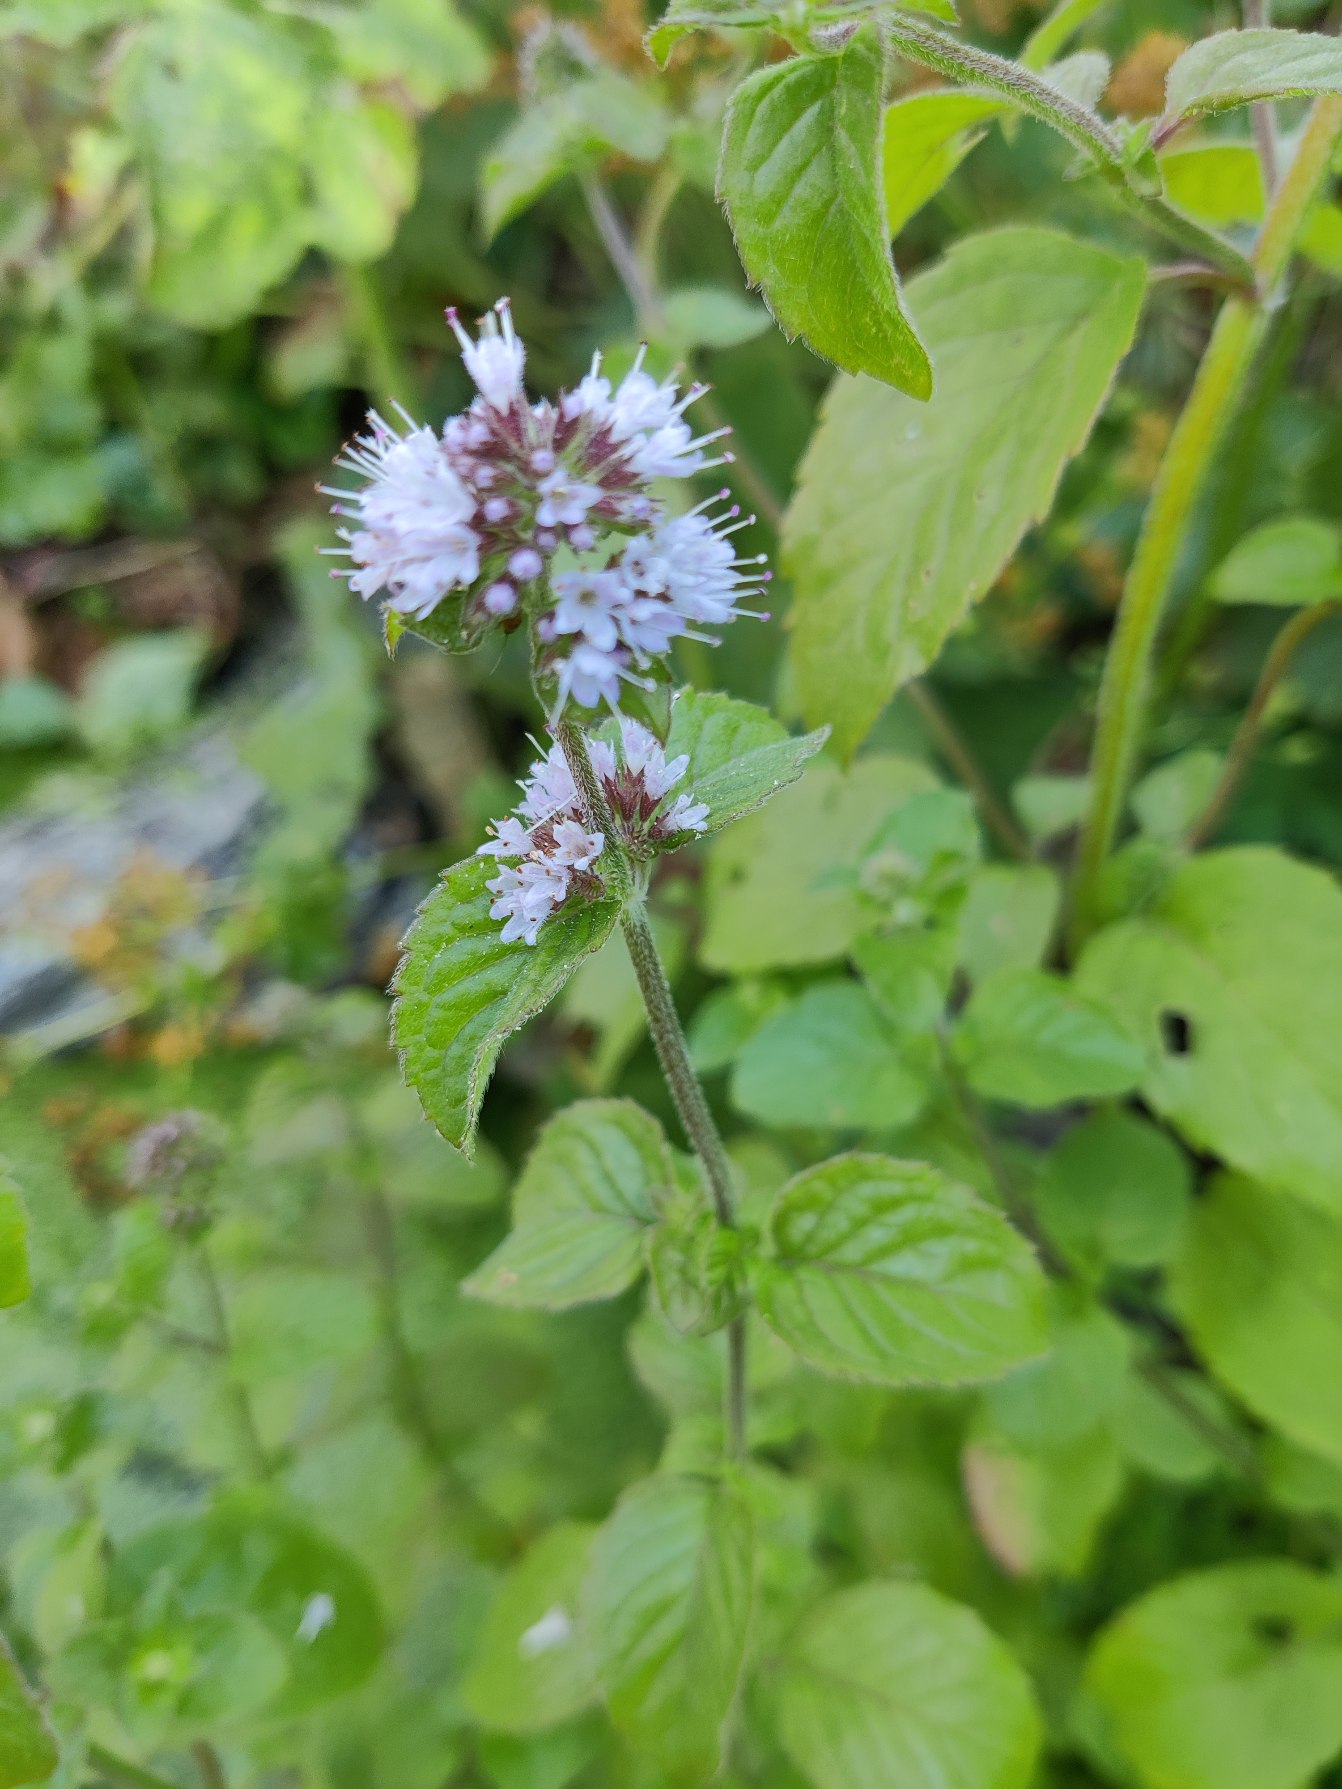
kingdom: Plantae
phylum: Tracheophyta
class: Magnoliopsida
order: Lamiales
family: Lamiaceae
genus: Mentha
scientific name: Mentha aquatica
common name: Vand-mynte
